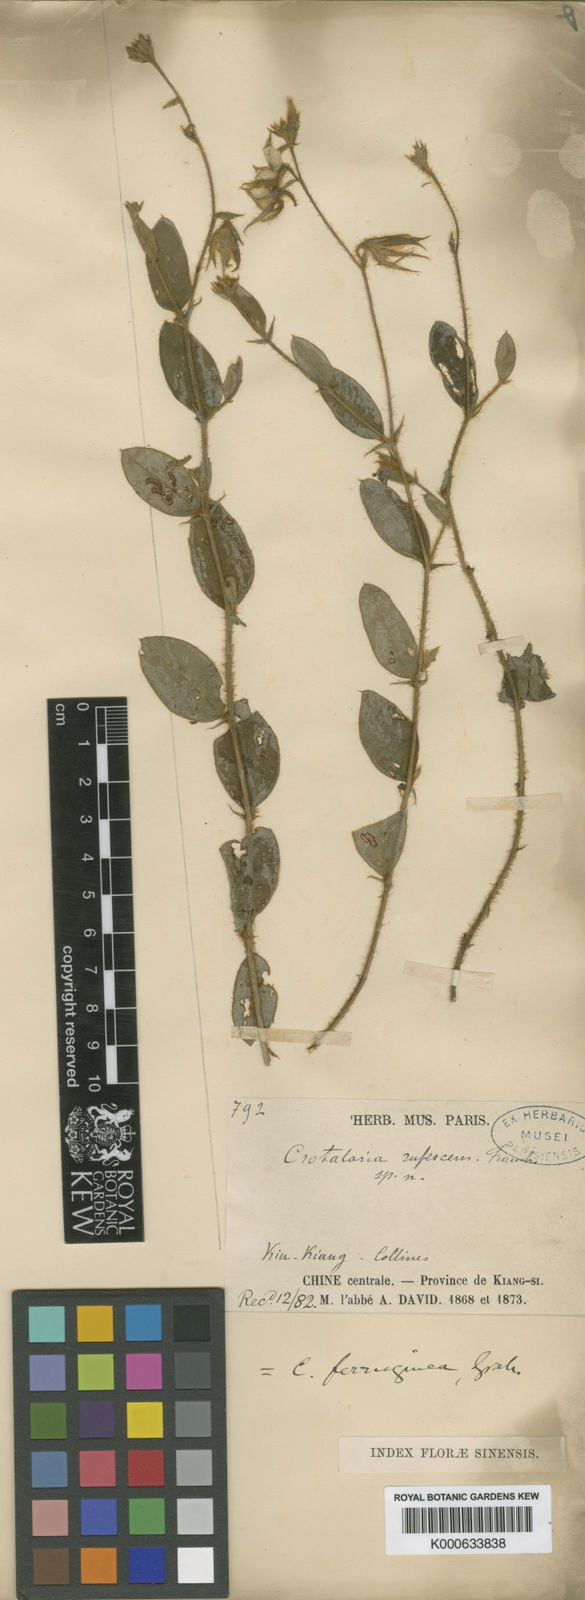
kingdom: Plantae
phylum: Tracheophyta
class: Magnoliopsida
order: Fabales
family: Fabaceae
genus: Crotalaria
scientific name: Crotalaria lejoloba
